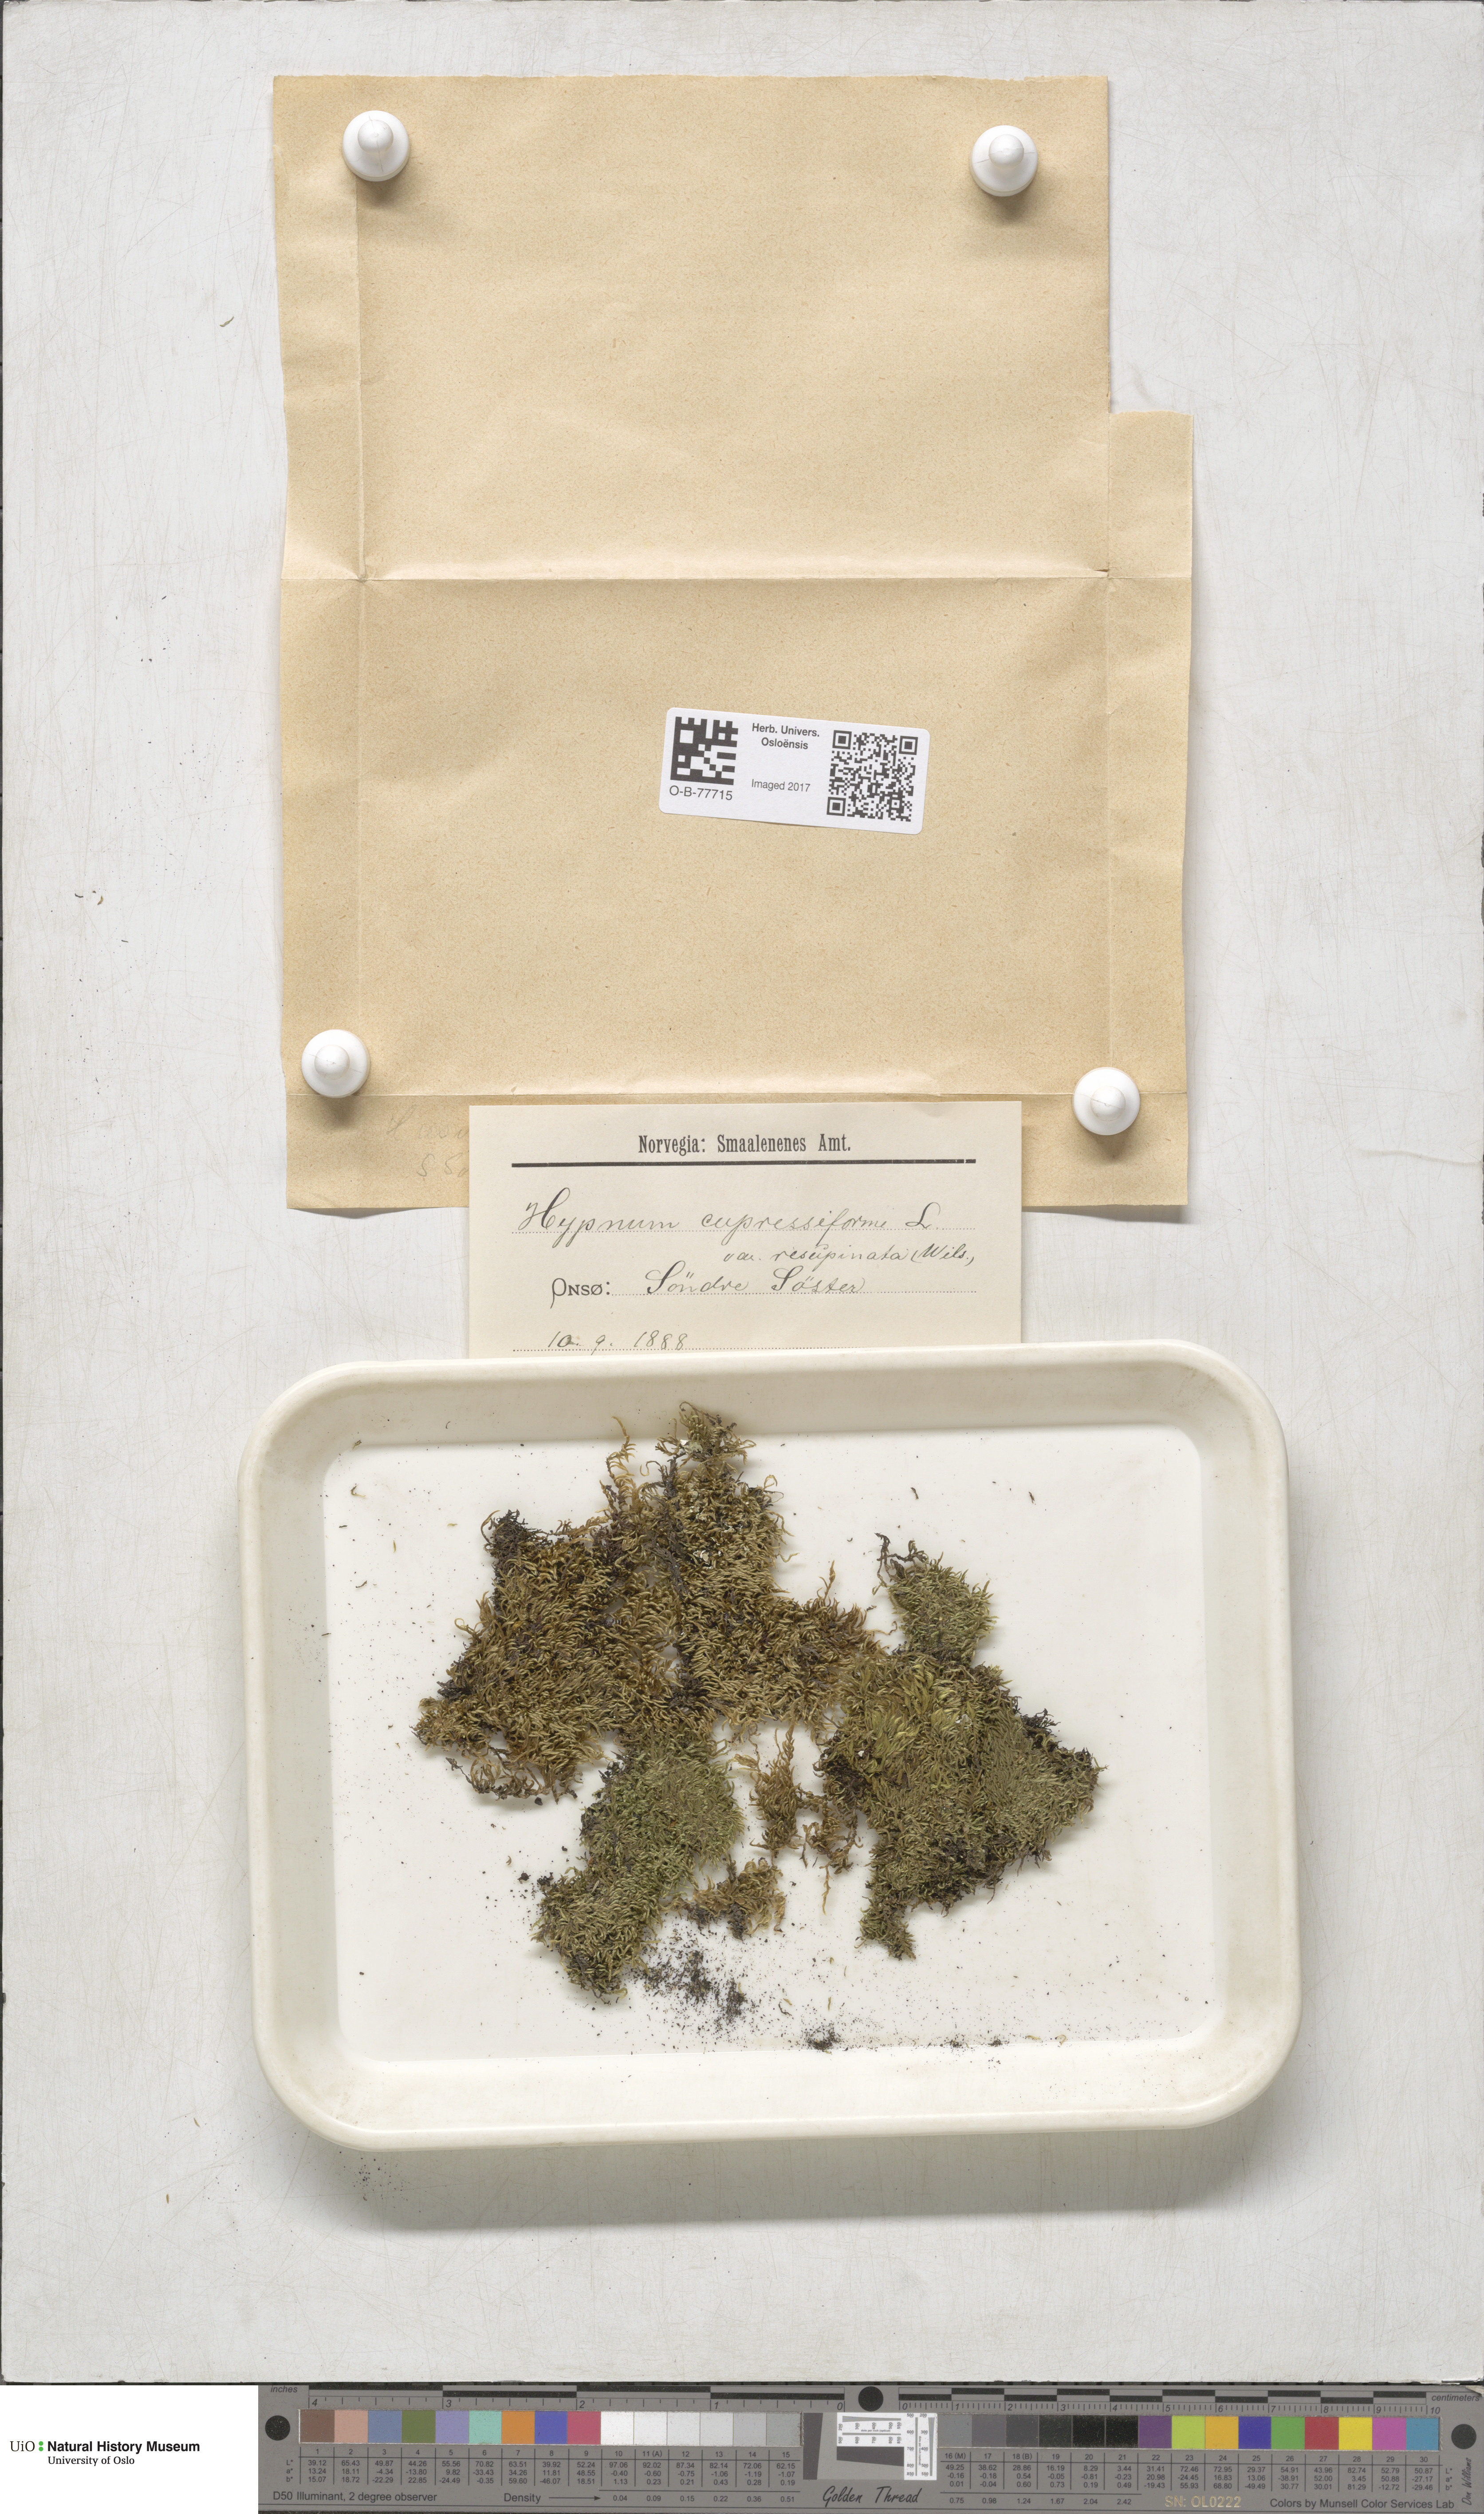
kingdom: Plantae
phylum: Bryophyta
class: Bryopsida
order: Hypnales
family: Hypnaceae
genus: Hypnum
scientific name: Hypnum cupressiforme
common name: Cypress-leaved plait-moss
